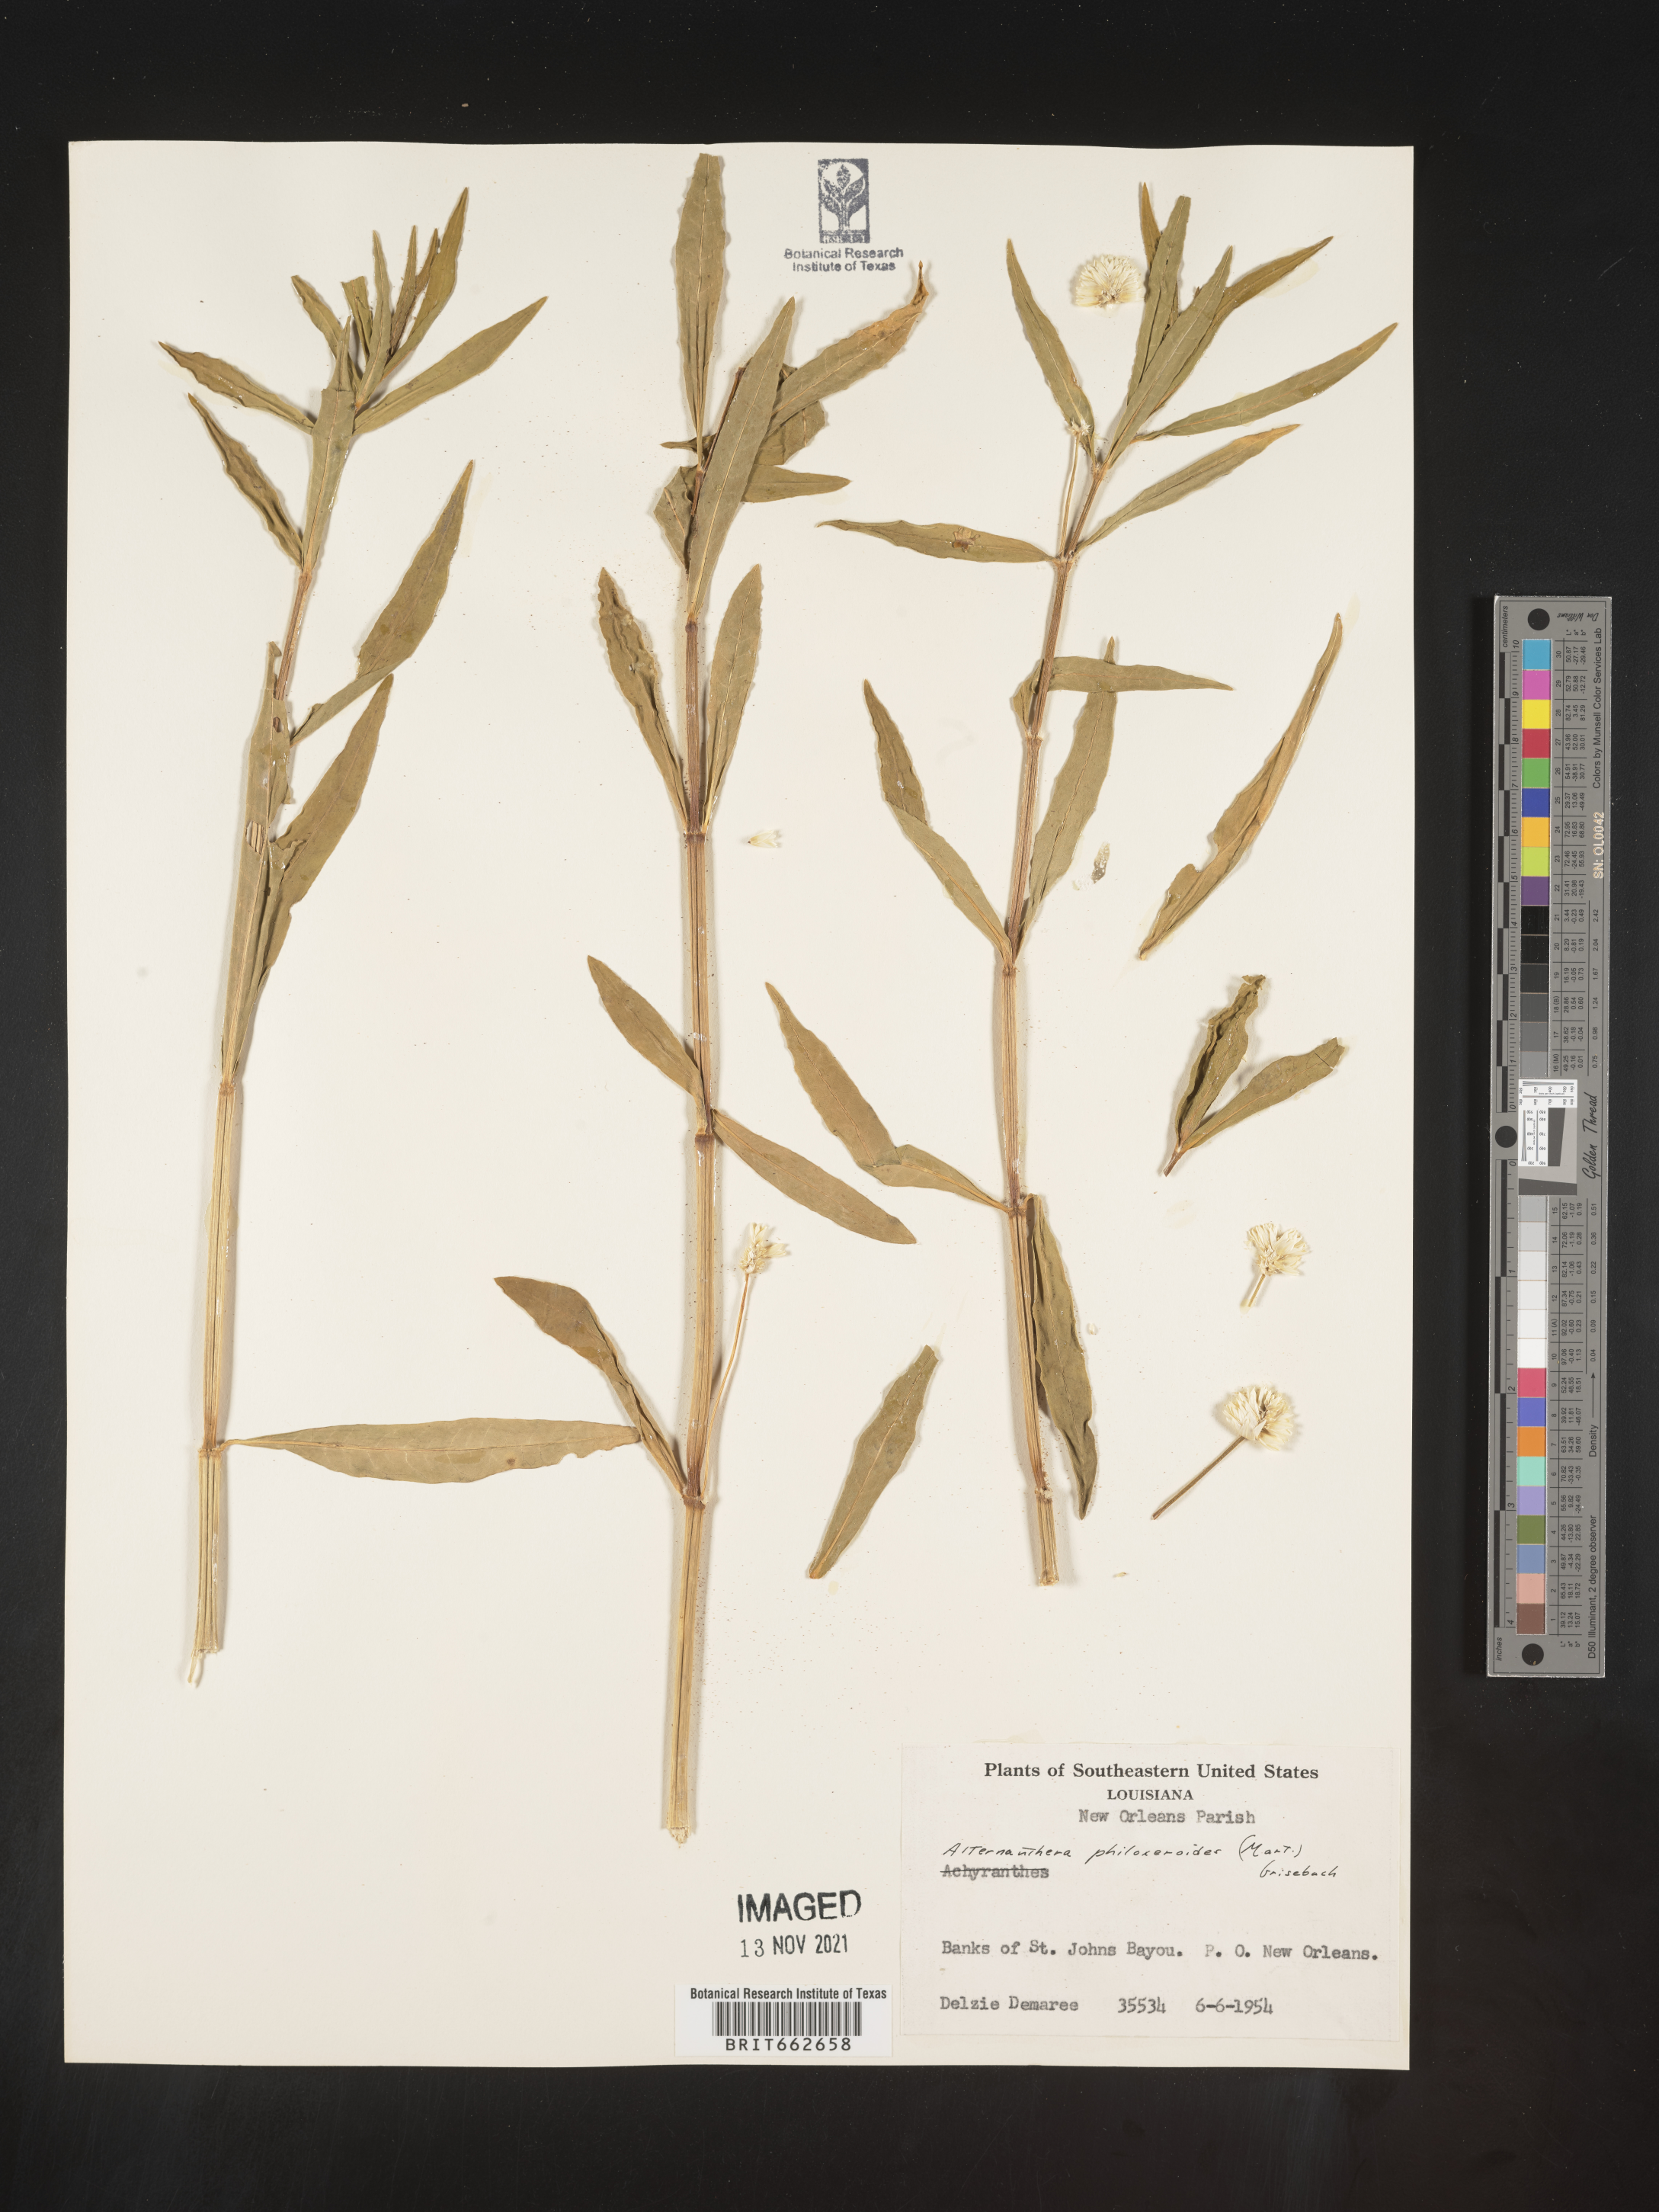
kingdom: Plantae
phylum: Tracheophyta
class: Magnoliopsida
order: Caryophyllales
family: Amaranthaceae
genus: Alternanthera
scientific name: Alternanthera philoxeroides
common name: Alligatorweed
